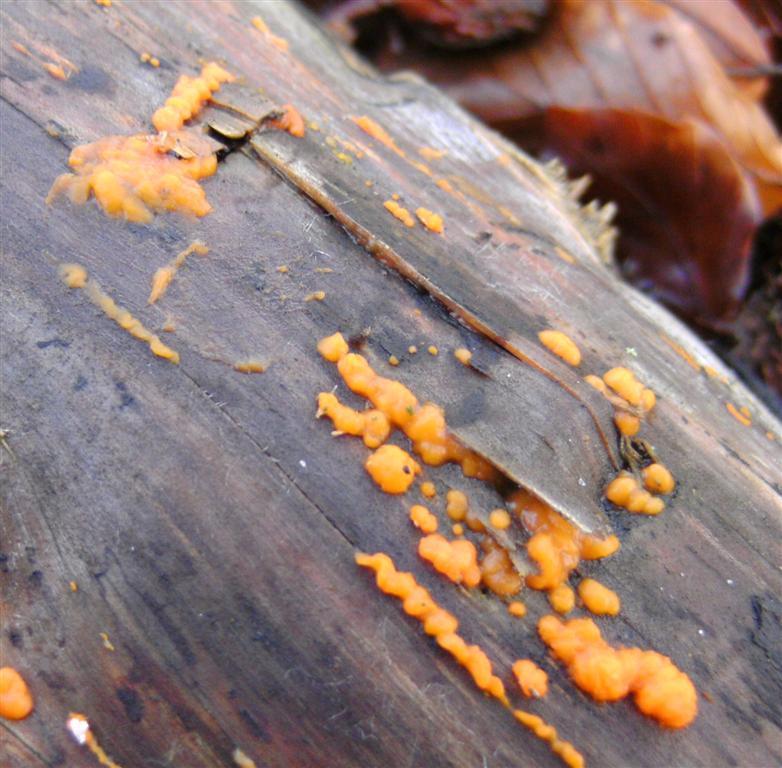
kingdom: Fungi
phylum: Basidiomycota
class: Dacrymycetes
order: Dacrymycetales
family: Dacrymycetaceae
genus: Dacrymyces
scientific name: Dacrymyces stillatus
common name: almindelig tåresvamp
